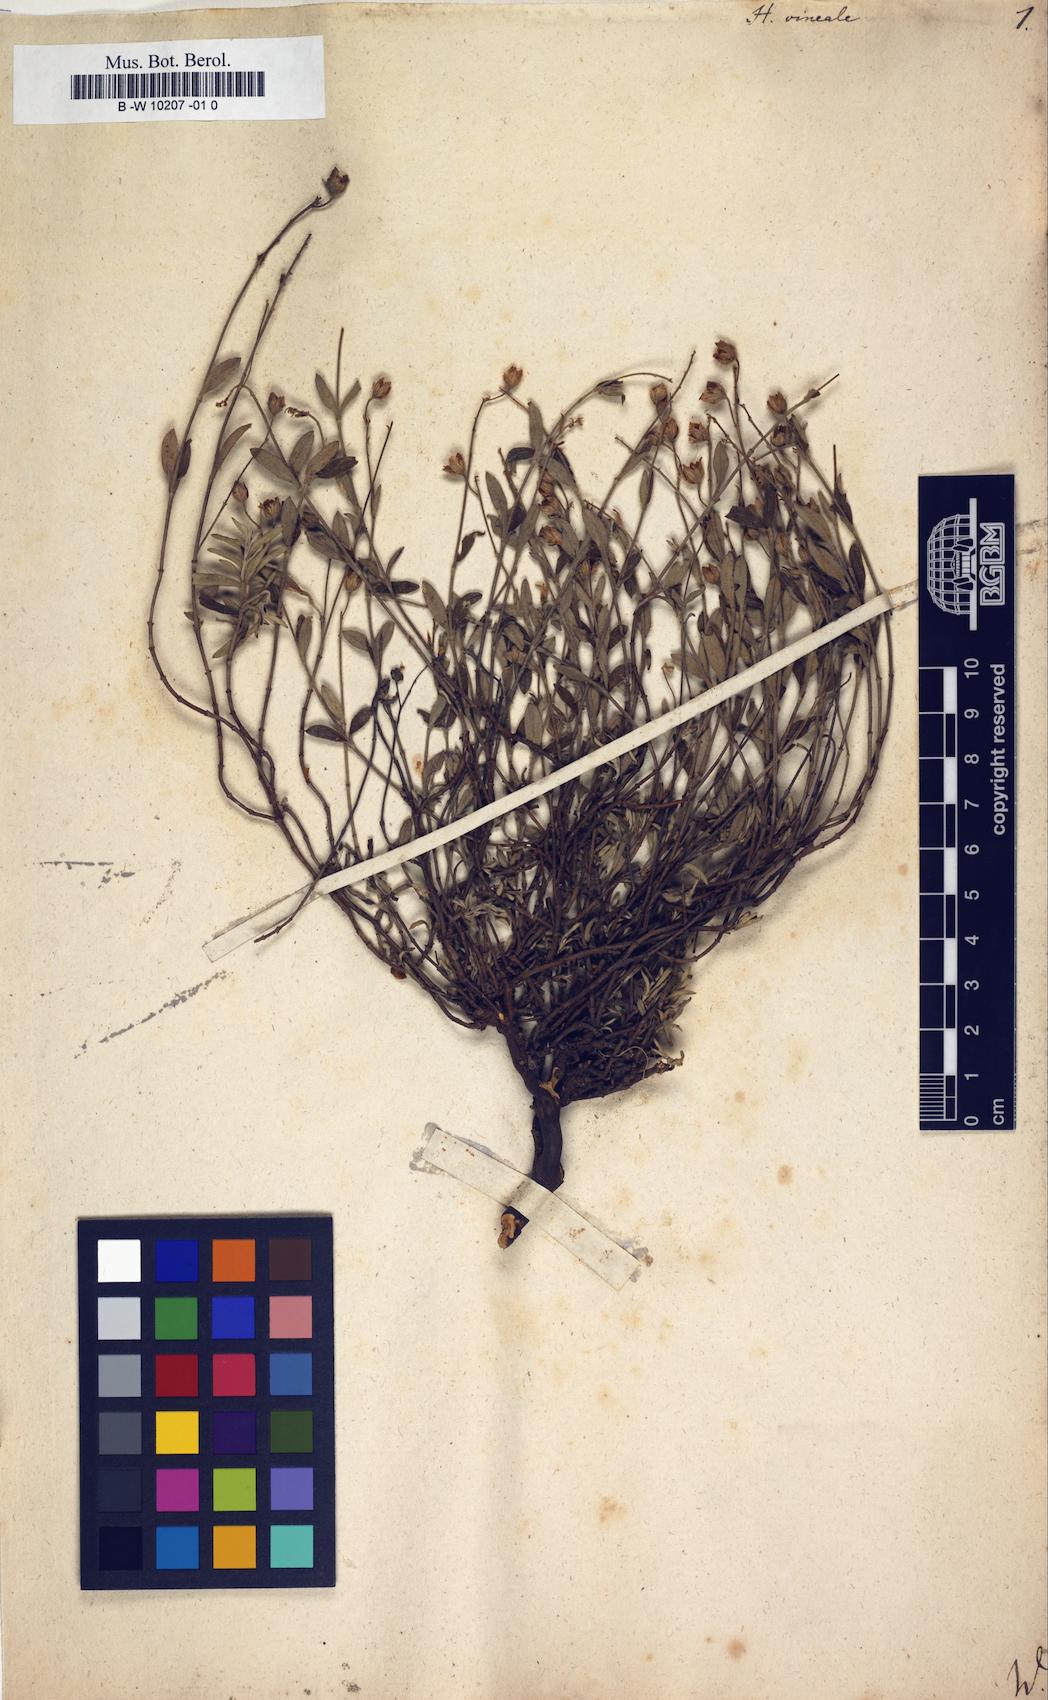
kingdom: Plantae
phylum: Tracheophyta
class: Magnoliopsida
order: Malvales
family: Cistaceae
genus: Helianthemum
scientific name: Helianthemum canum
